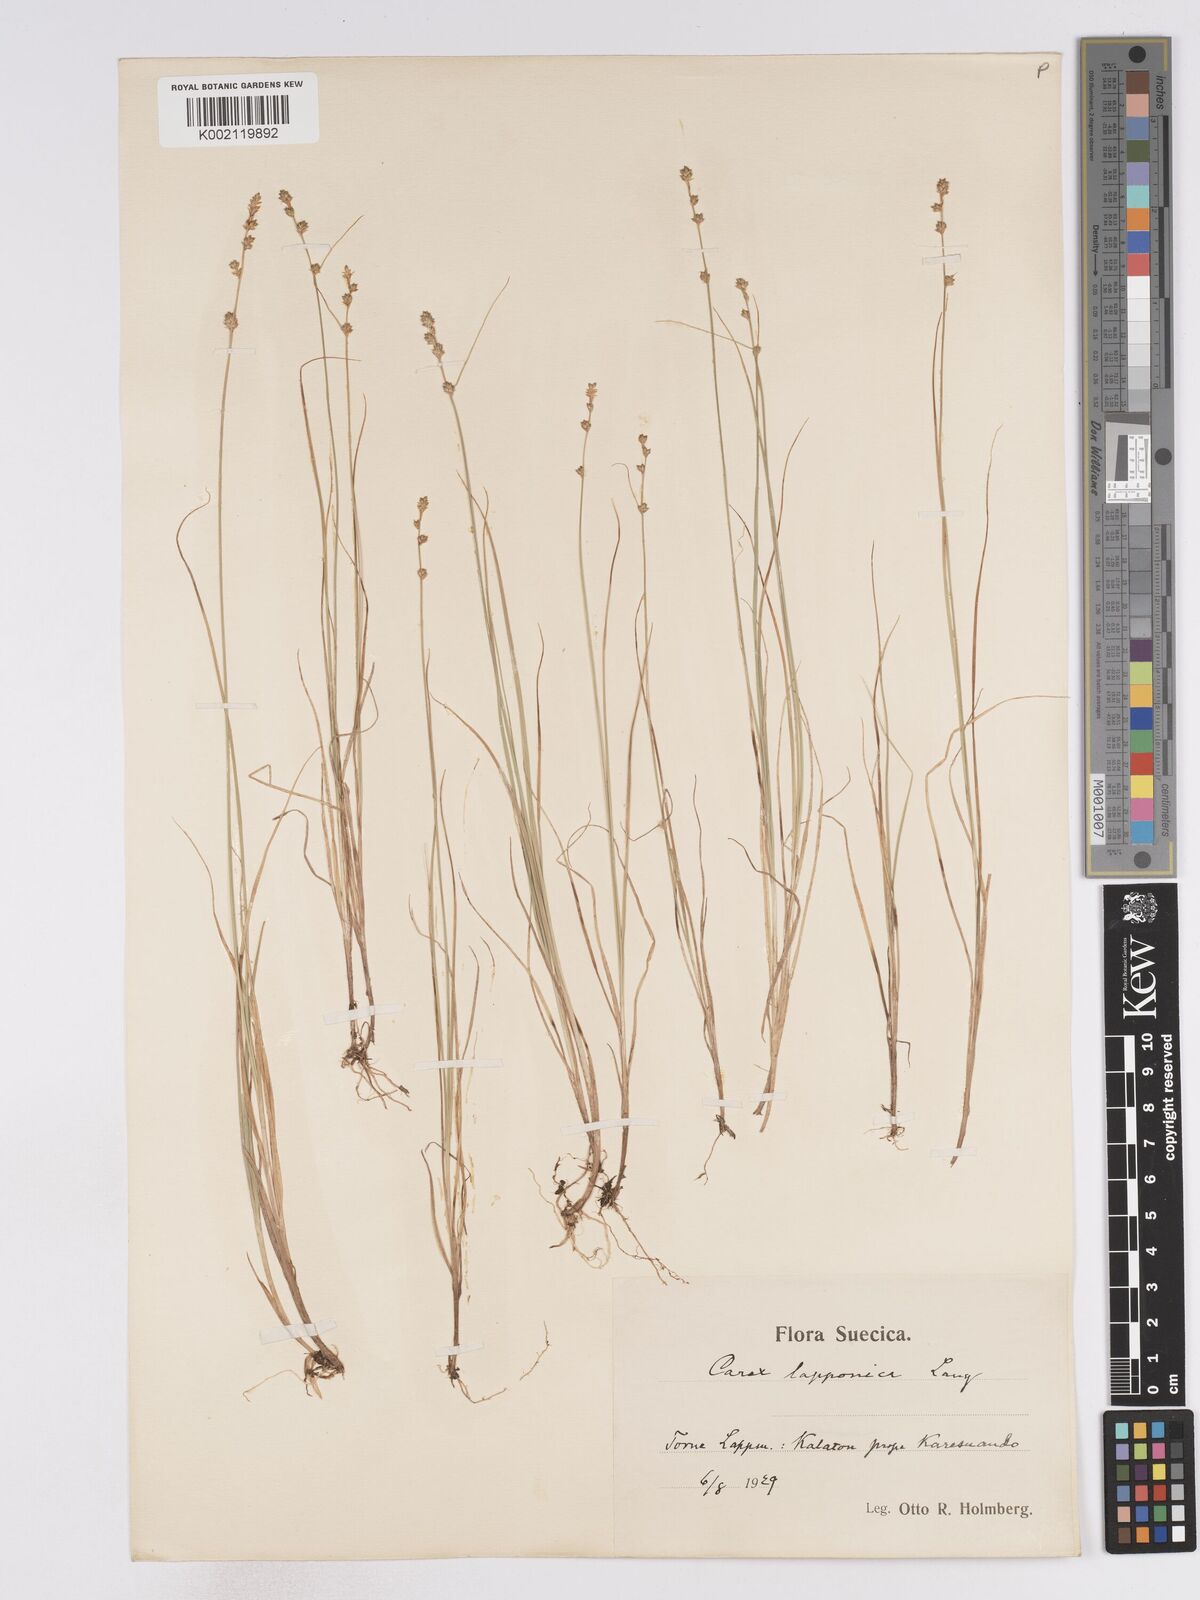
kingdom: Plantae
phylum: Tracheophyta
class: Liliopsida
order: Poales
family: Cyperaceae
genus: Carex
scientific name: Carex lapponica
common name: Lapland sedge
